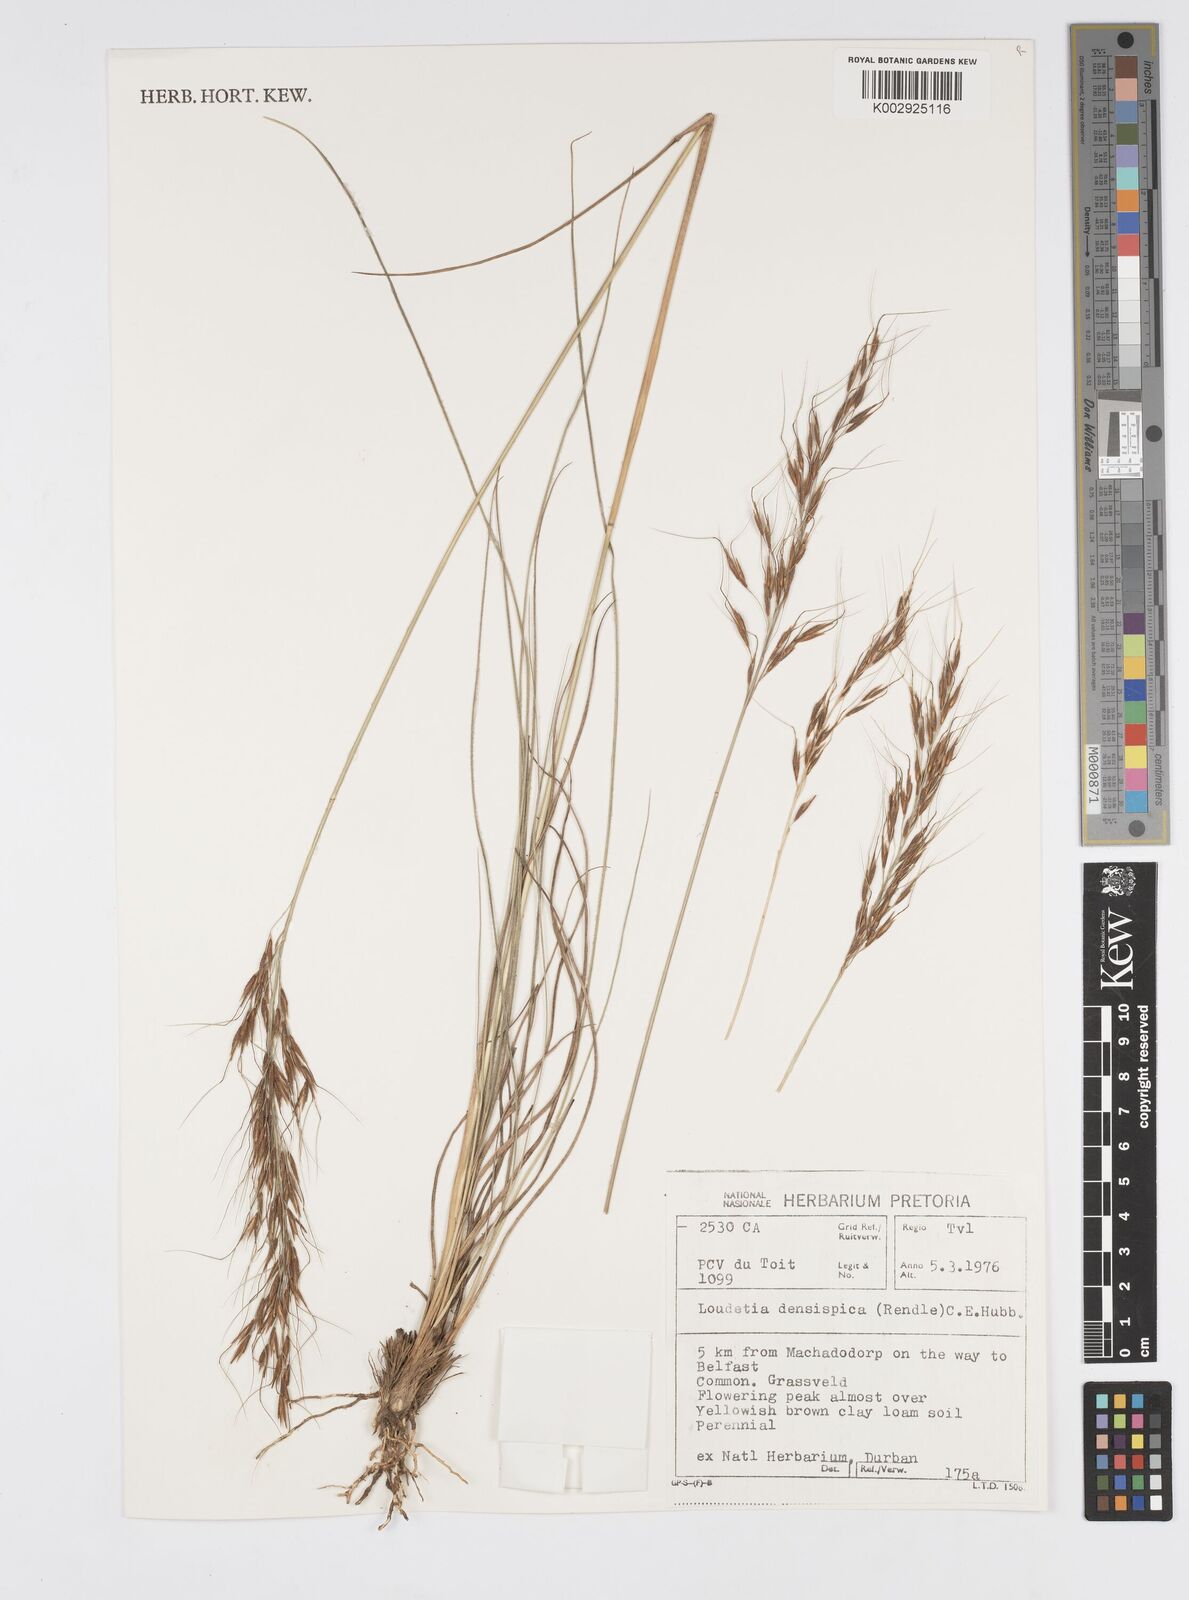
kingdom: Plantae
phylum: Tracheophyta
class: Liliopsida
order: Poales
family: Poaceae
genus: Loudetia
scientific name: Loudetia
